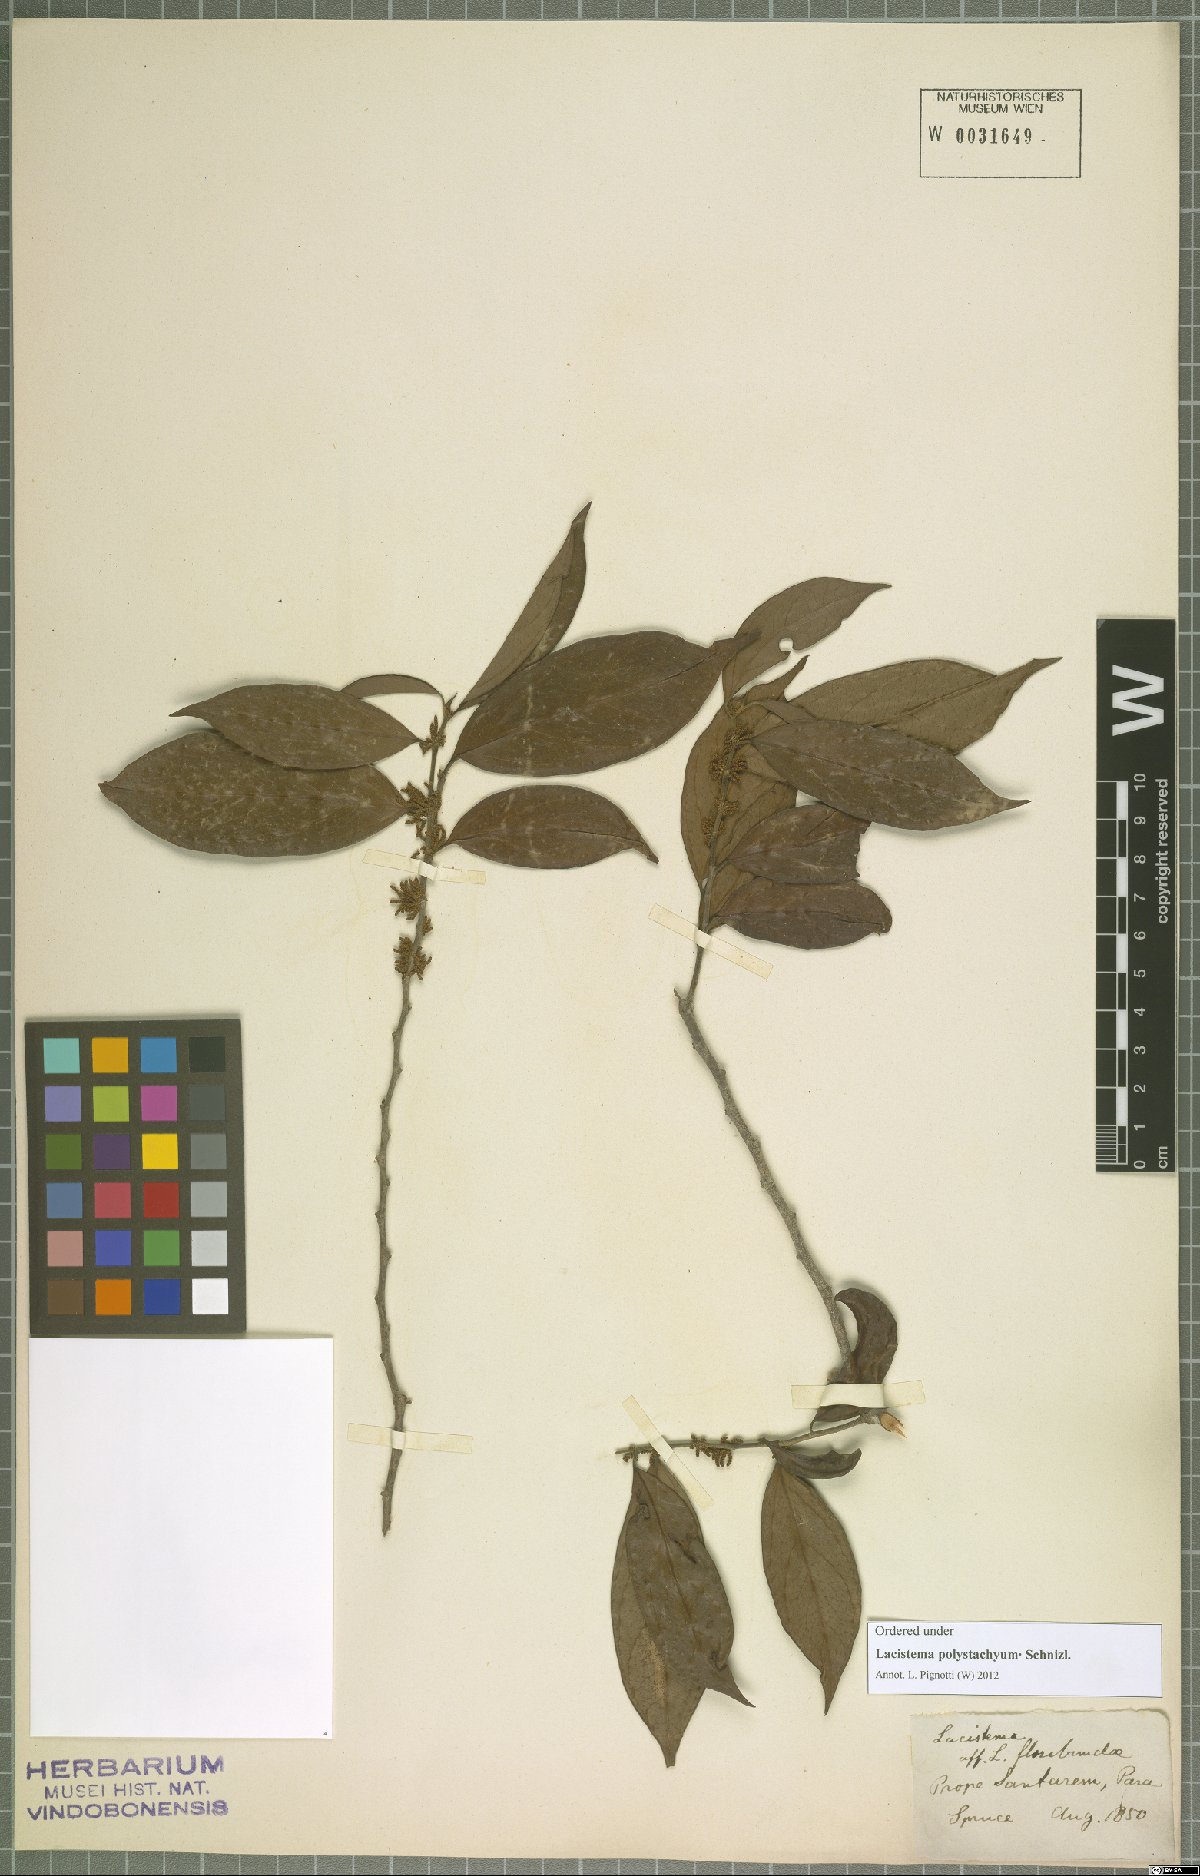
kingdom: Plantae
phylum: Tracheophyta
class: Magnoliopsida
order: Malpighiales
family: Lacistemataceae
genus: Lacistema
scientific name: Lacistema polystachyum
